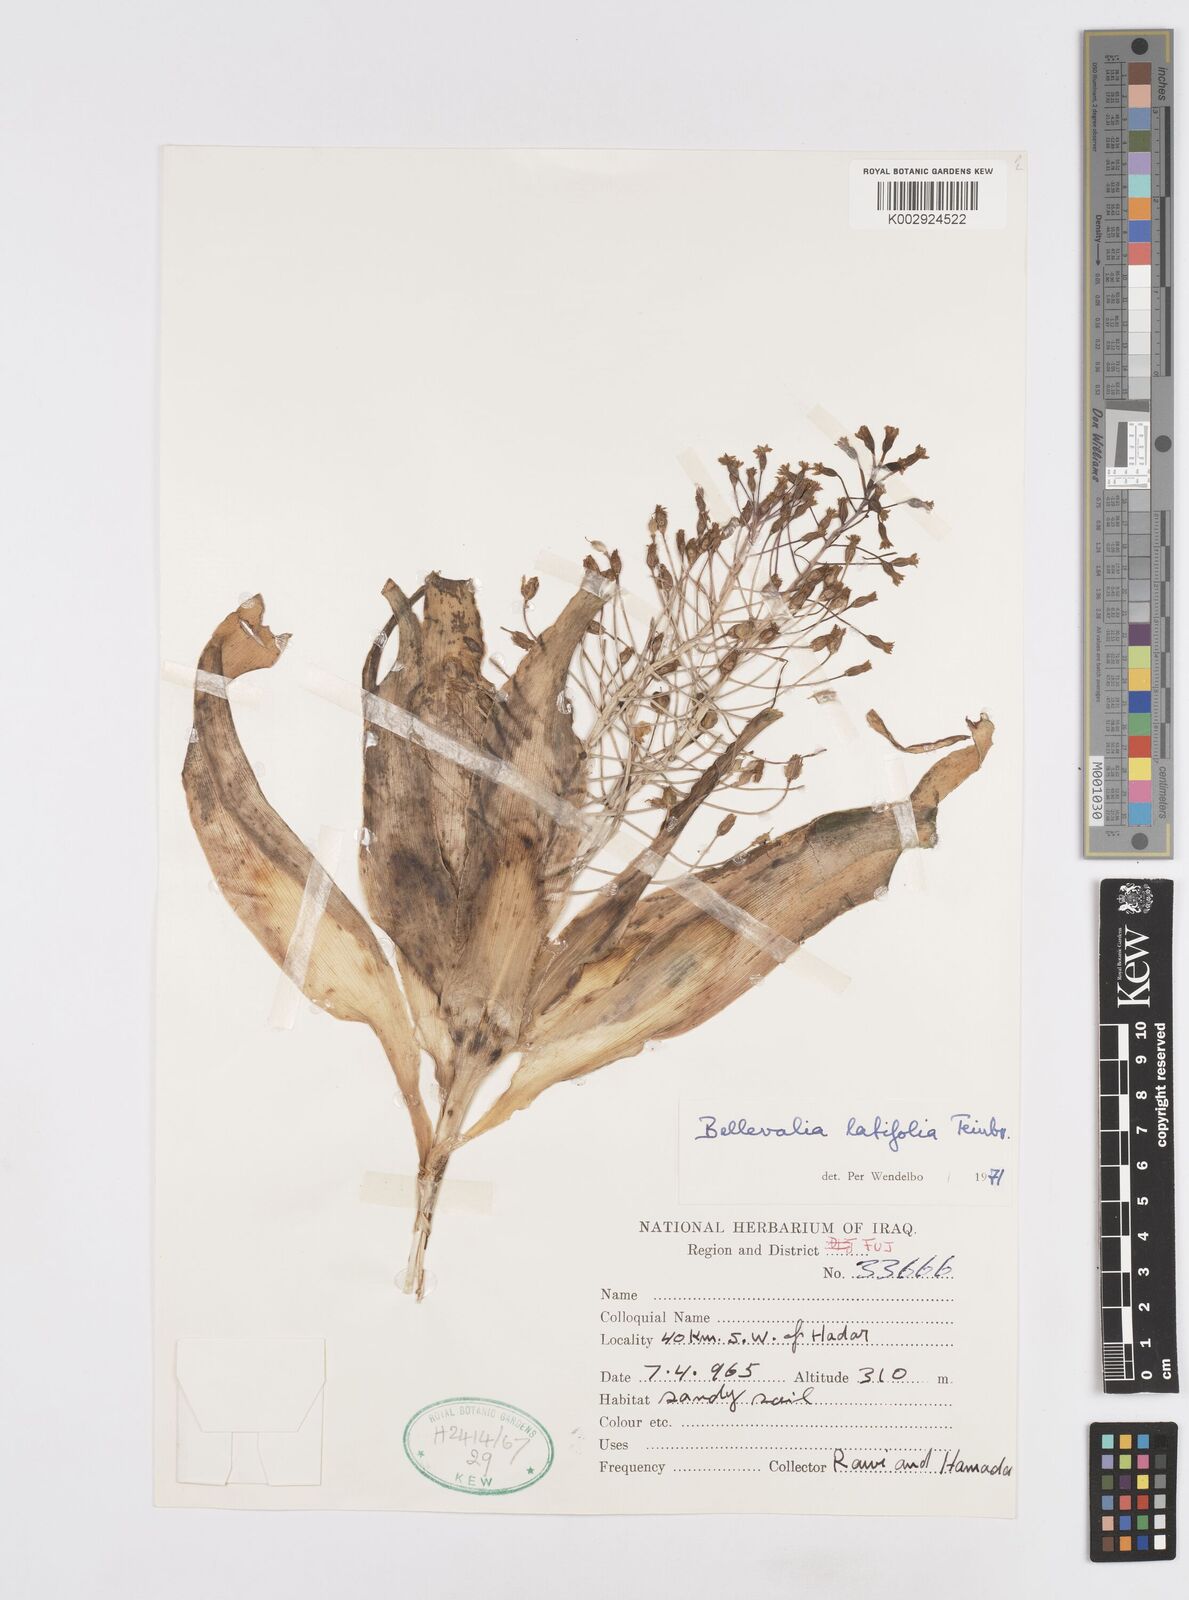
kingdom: Plantae
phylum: Tracheophyta
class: Liliopsida
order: Asparagales
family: Asparagaceae
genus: Bellevalia
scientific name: Bellevalia olivieri
